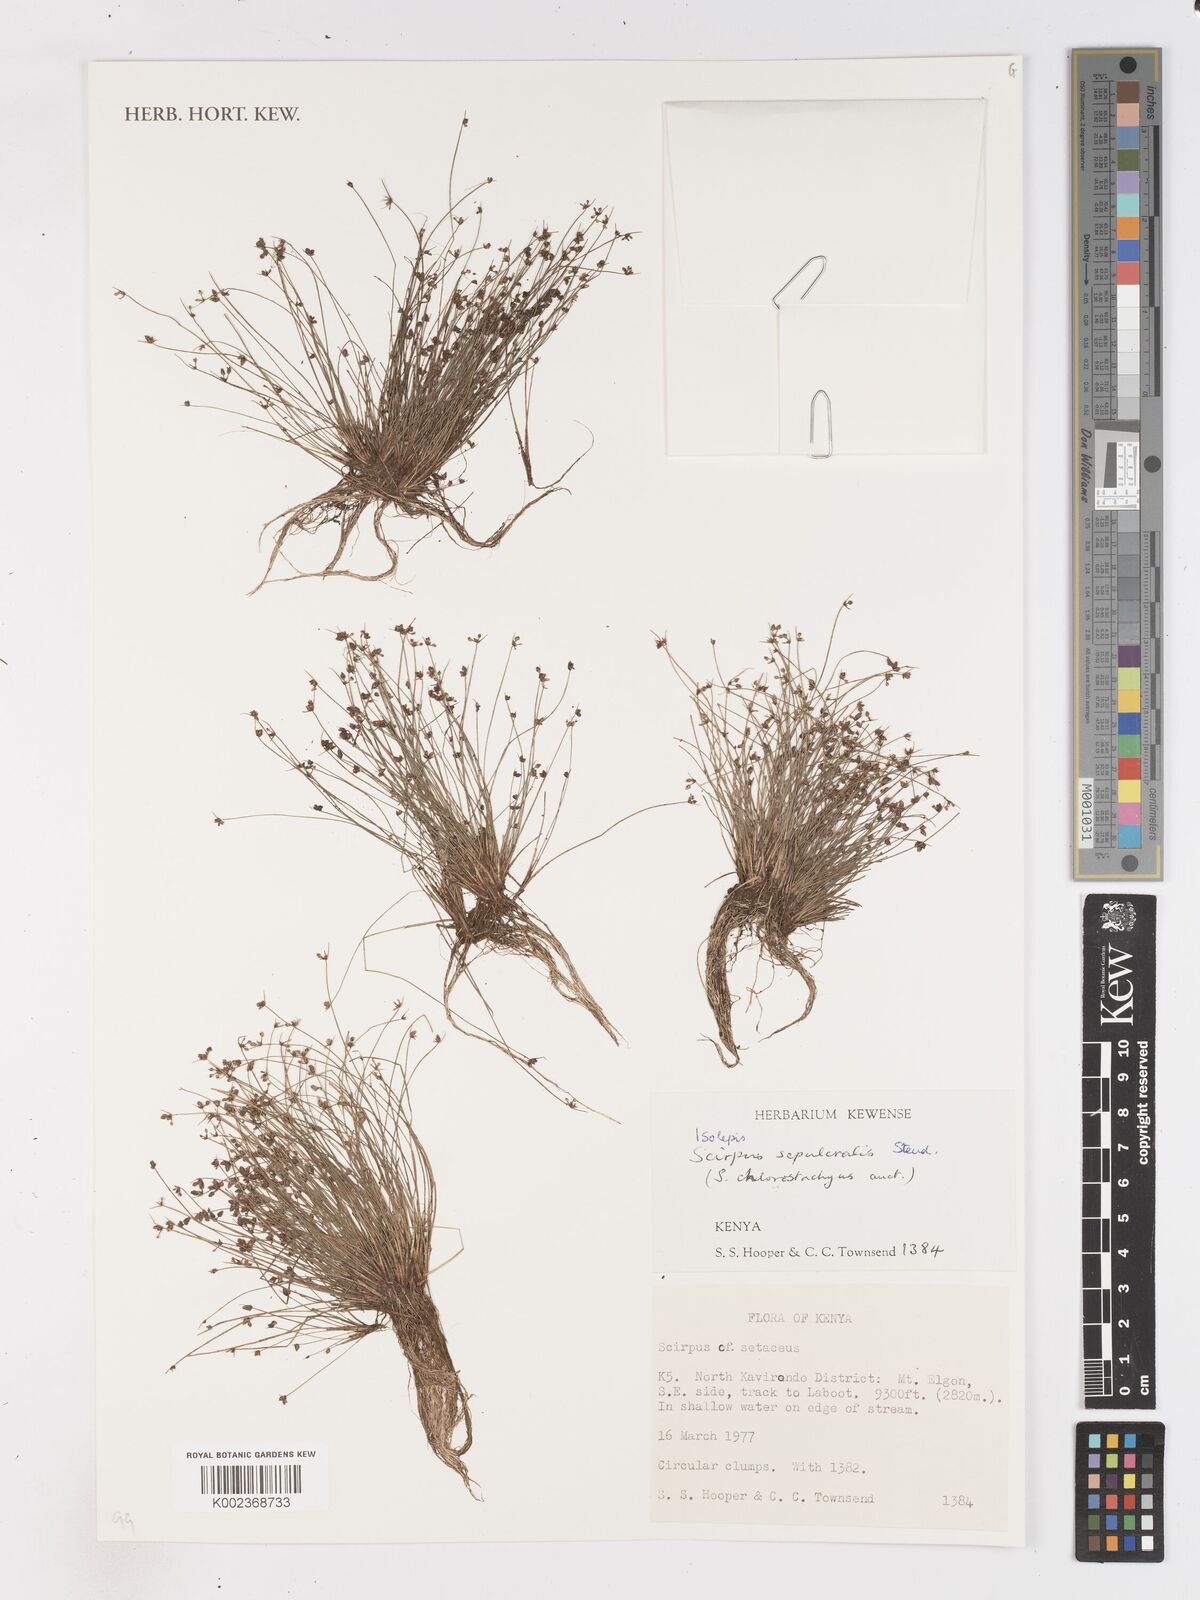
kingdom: Plantae
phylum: Tracheophyta
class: Liliopsida
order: Poales
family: Cyperaceae
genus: Isolepis
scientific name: Isolepis sepulcralis
